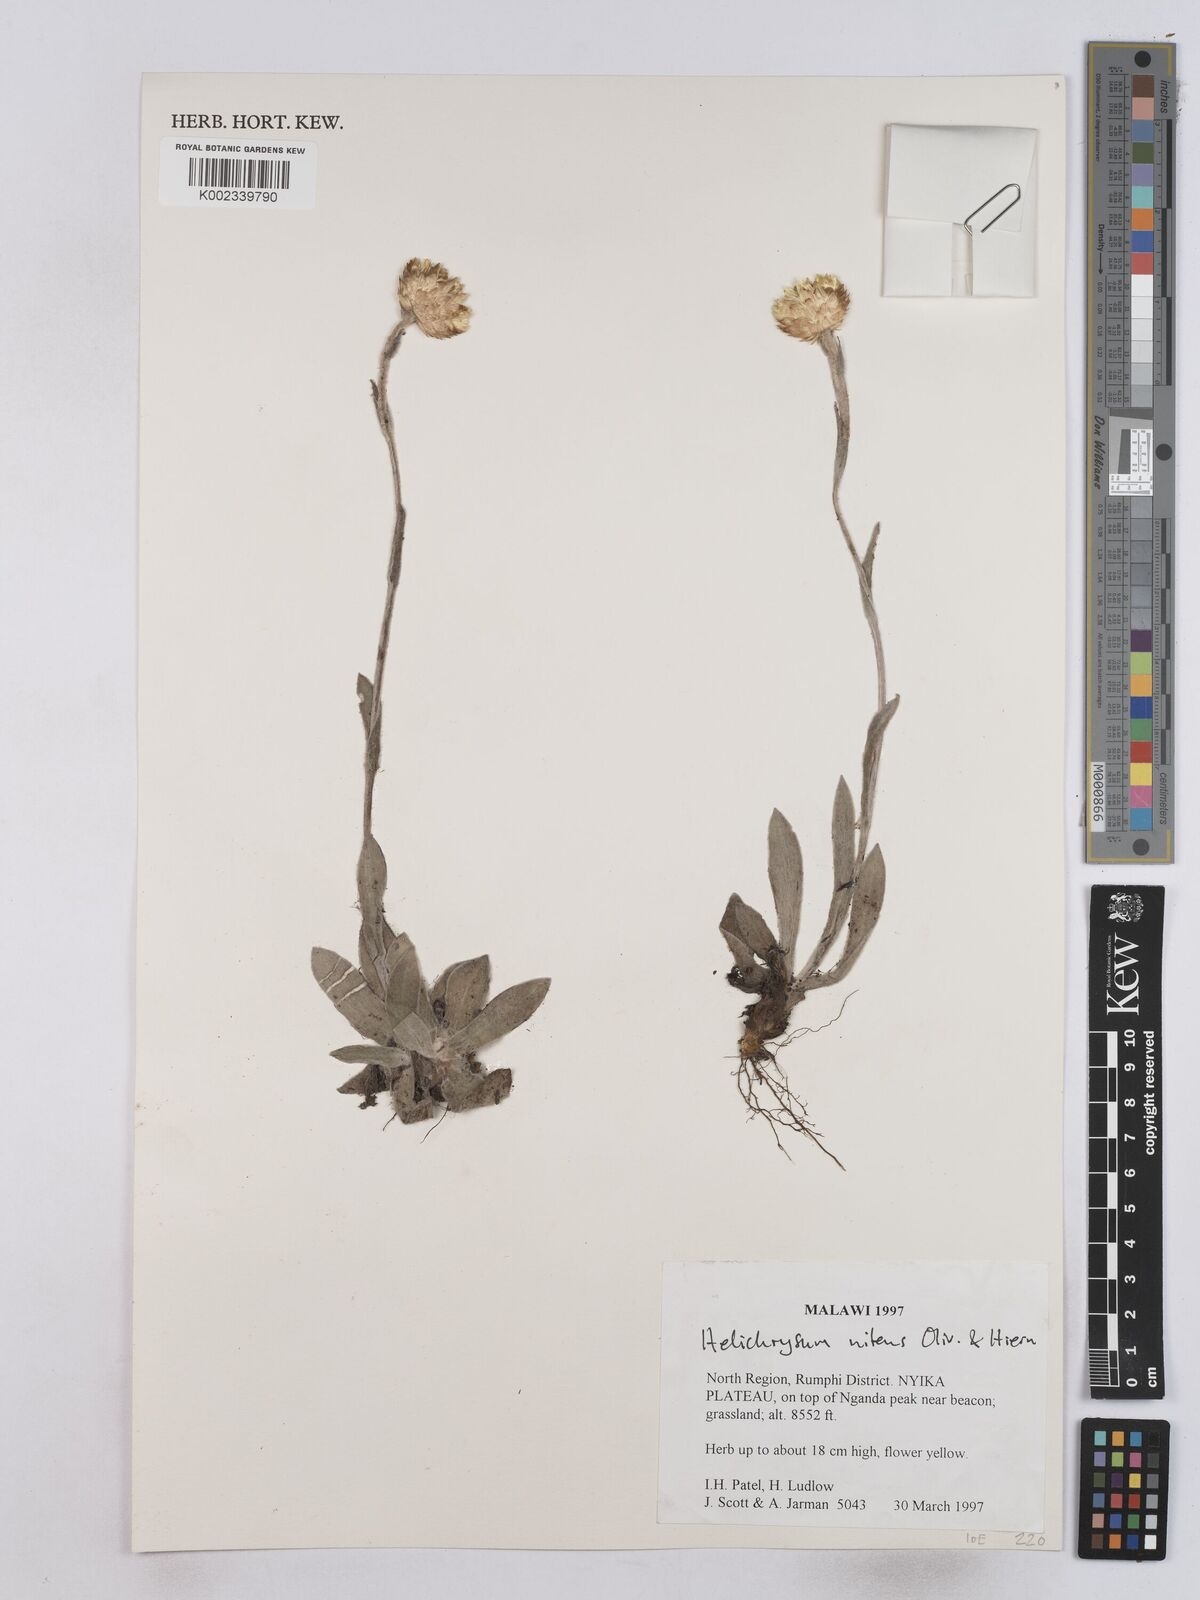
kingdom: Plantae
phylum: Tracheophyta
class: Magnoliopsida
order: Asterales
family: Asteraceae
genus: Helichrysum
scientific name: Helichrysum nitens
